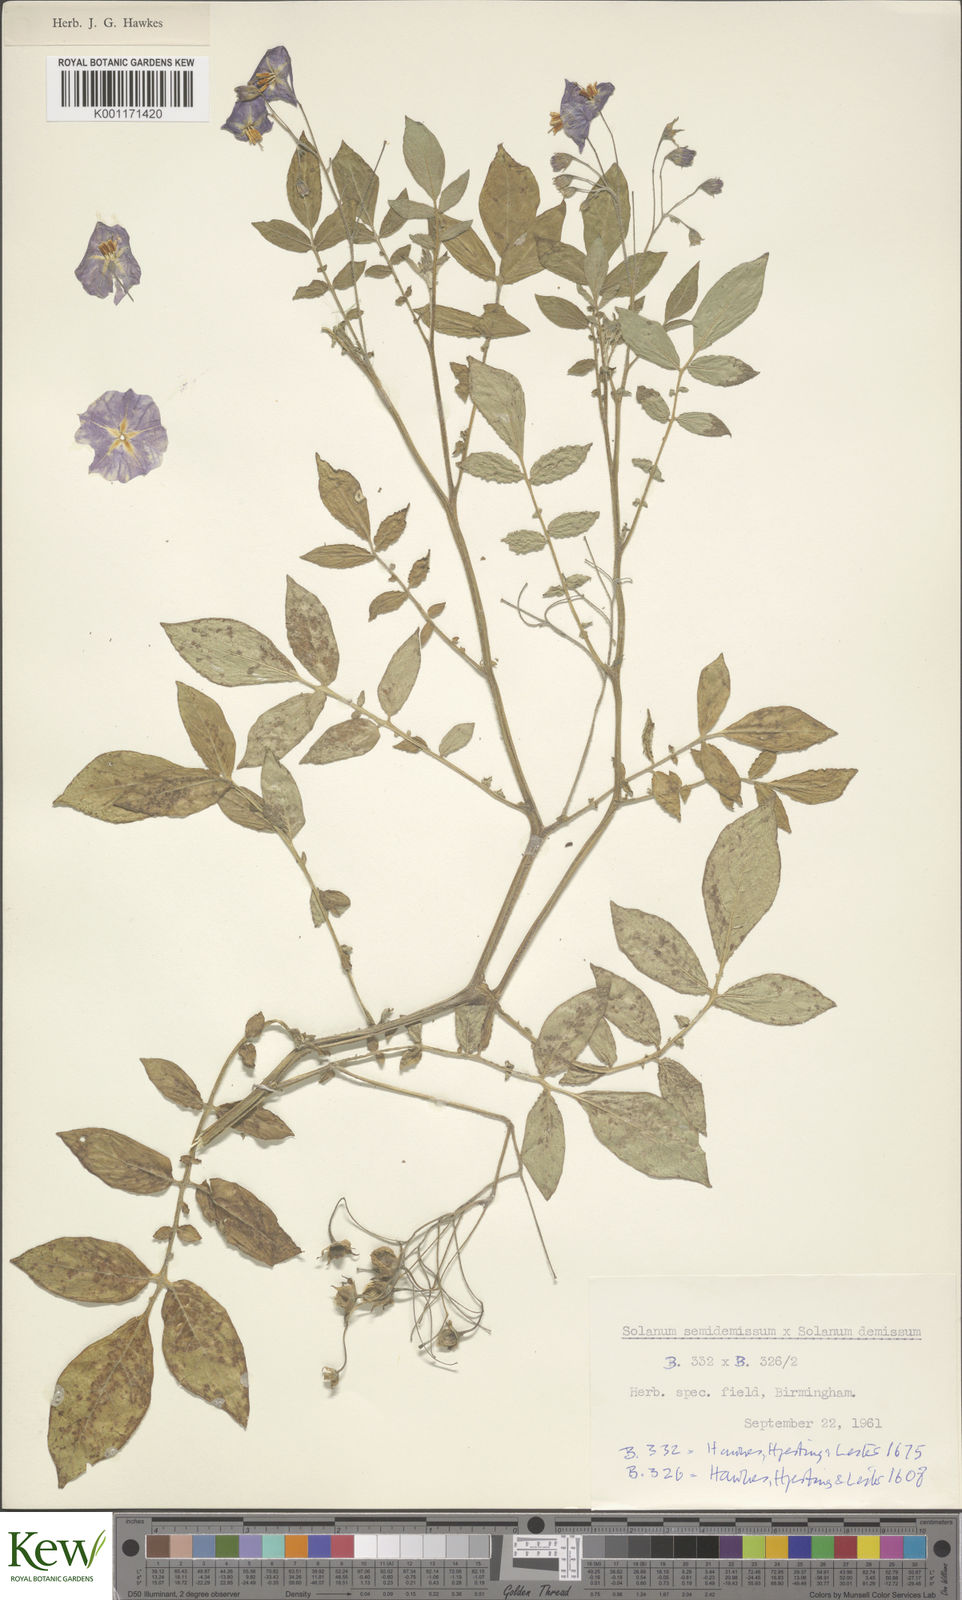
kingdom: Plantae
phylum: Tracheophyta
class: Magnoliopsida
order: Solanales
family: Solanaceae
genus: Solanum
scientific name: Solanum demissum
